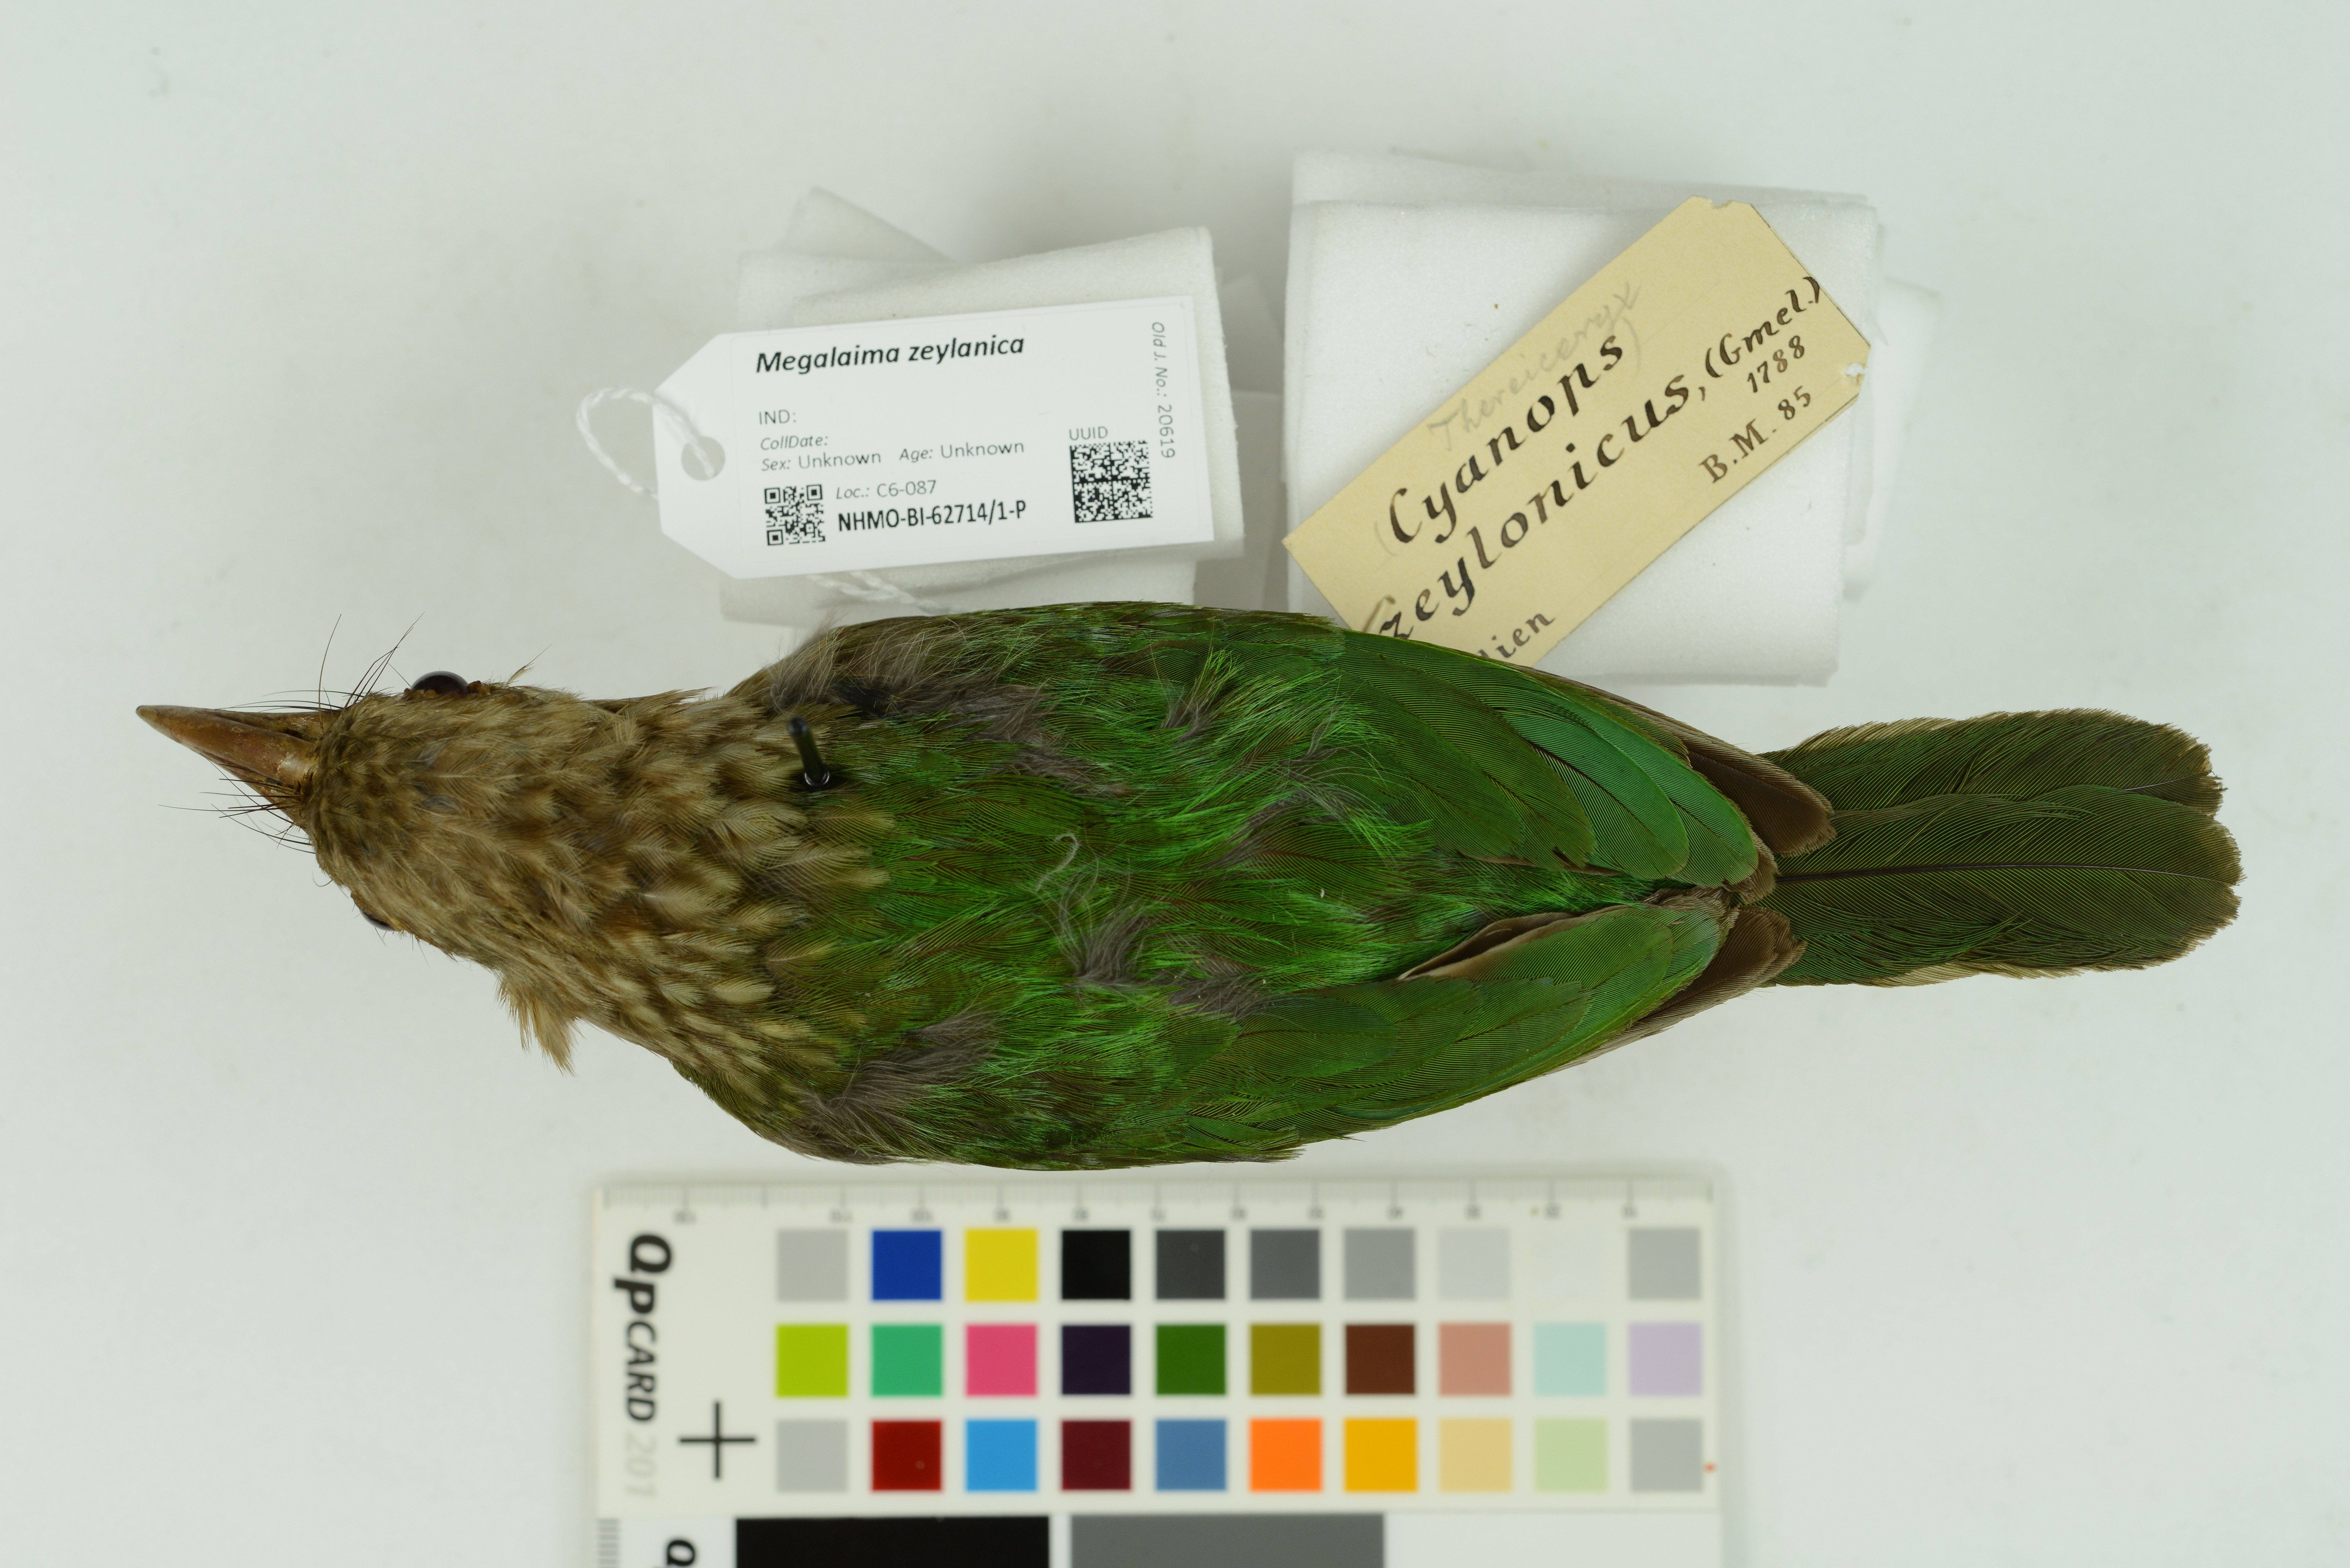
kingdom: Animalia
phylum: Chordata
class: Aves
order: Piciformes
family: Megalaimidae
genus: Psilopogon
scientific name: Psilopogon zeylanicus
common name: Brown-headed barbet
